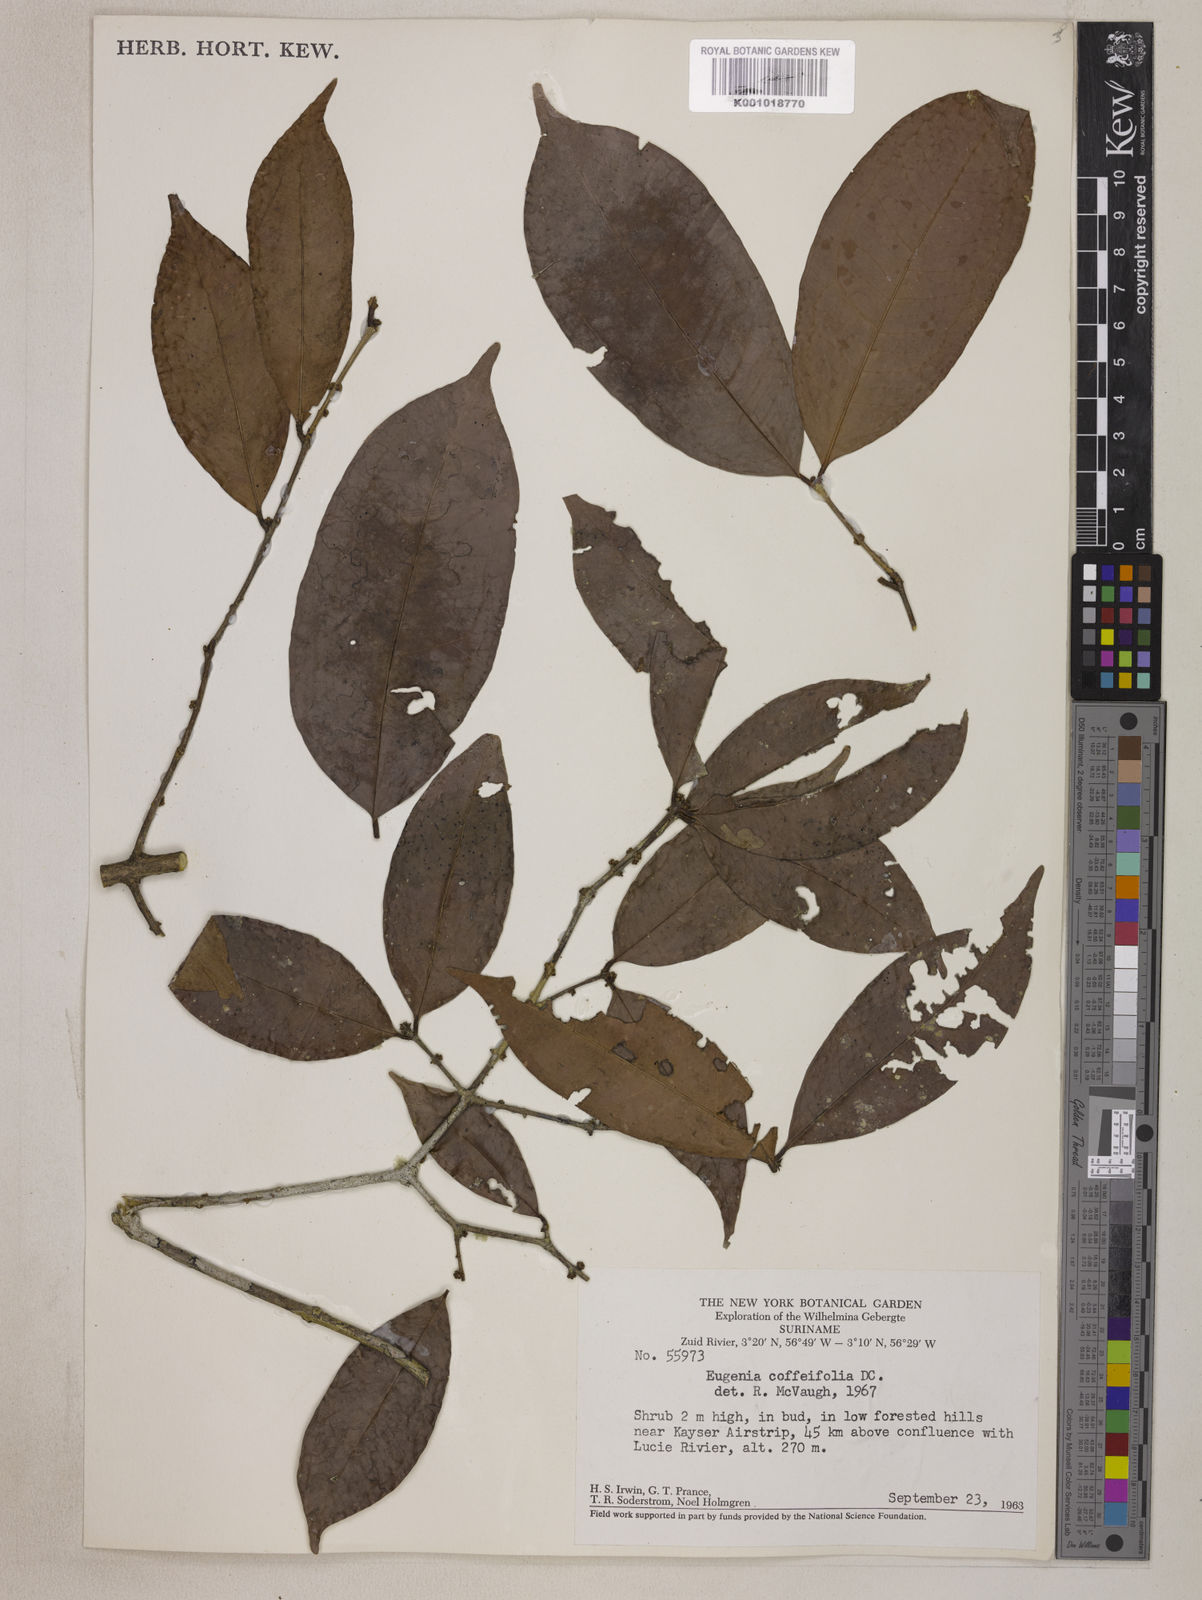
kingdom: Plantae
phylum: Tracheophyta
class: Magnoliopsida
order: Myrtales
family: Myrtaceae
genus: Eugenia
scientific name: Eugenia coffeifolia
